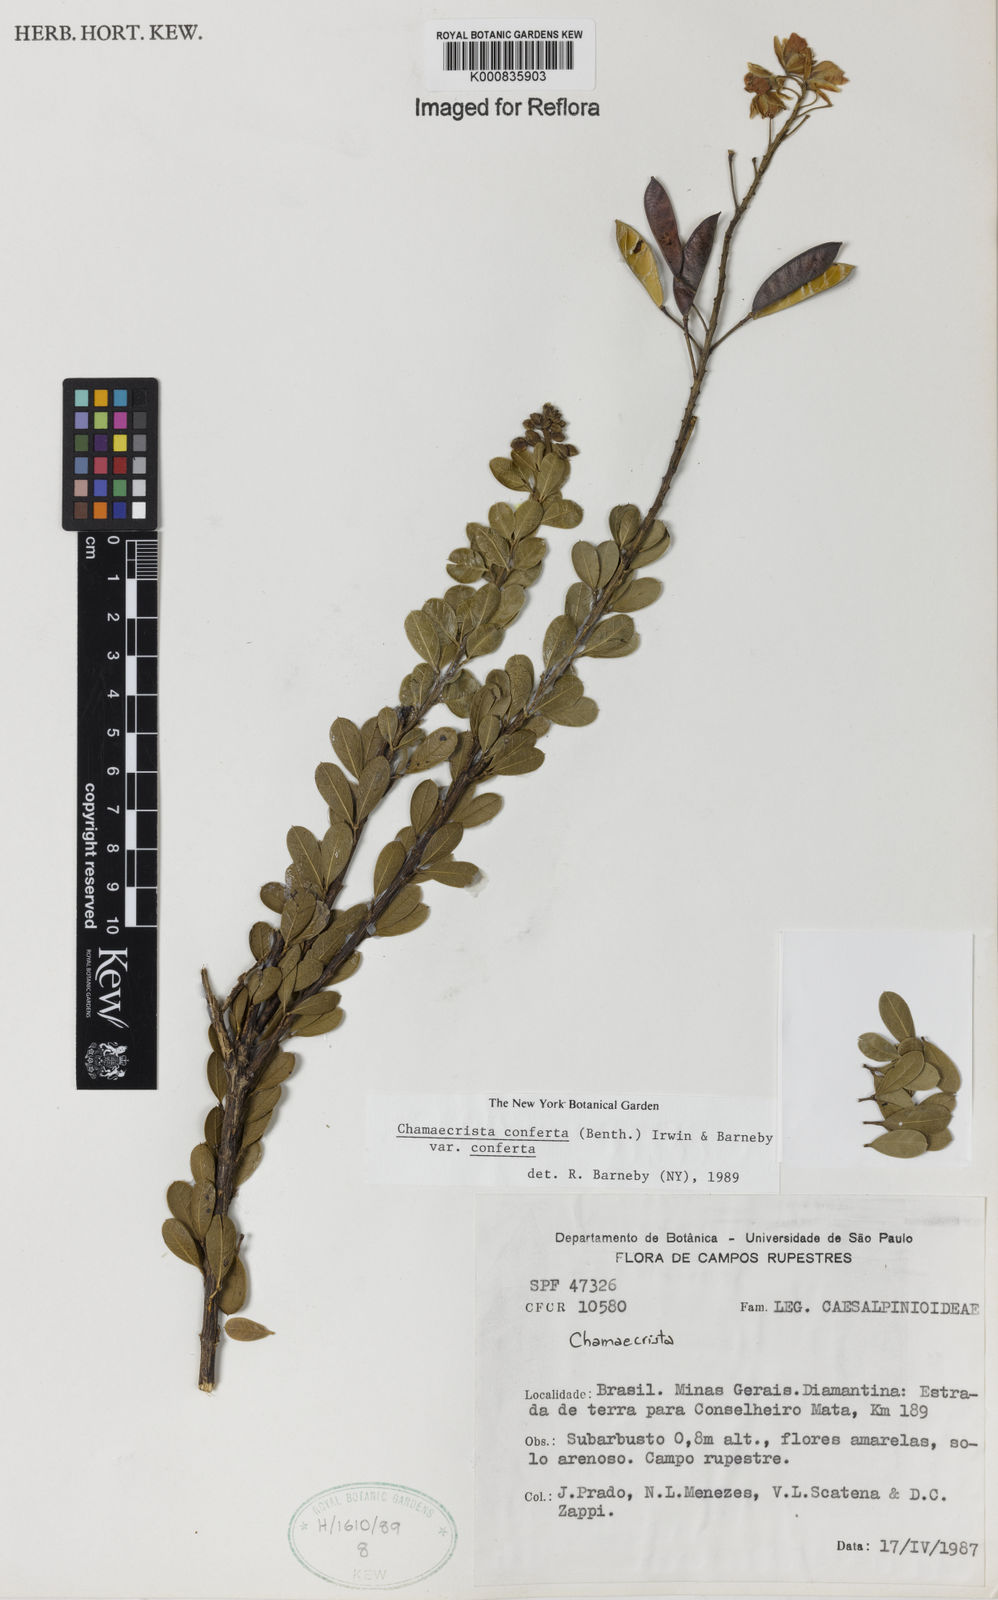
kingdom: Plantae
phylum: Tracheophyta
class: Magnoliopsida
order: Fabales
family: Fabaceae
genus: Chamaecrista
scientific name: Chamaecrista conferta
